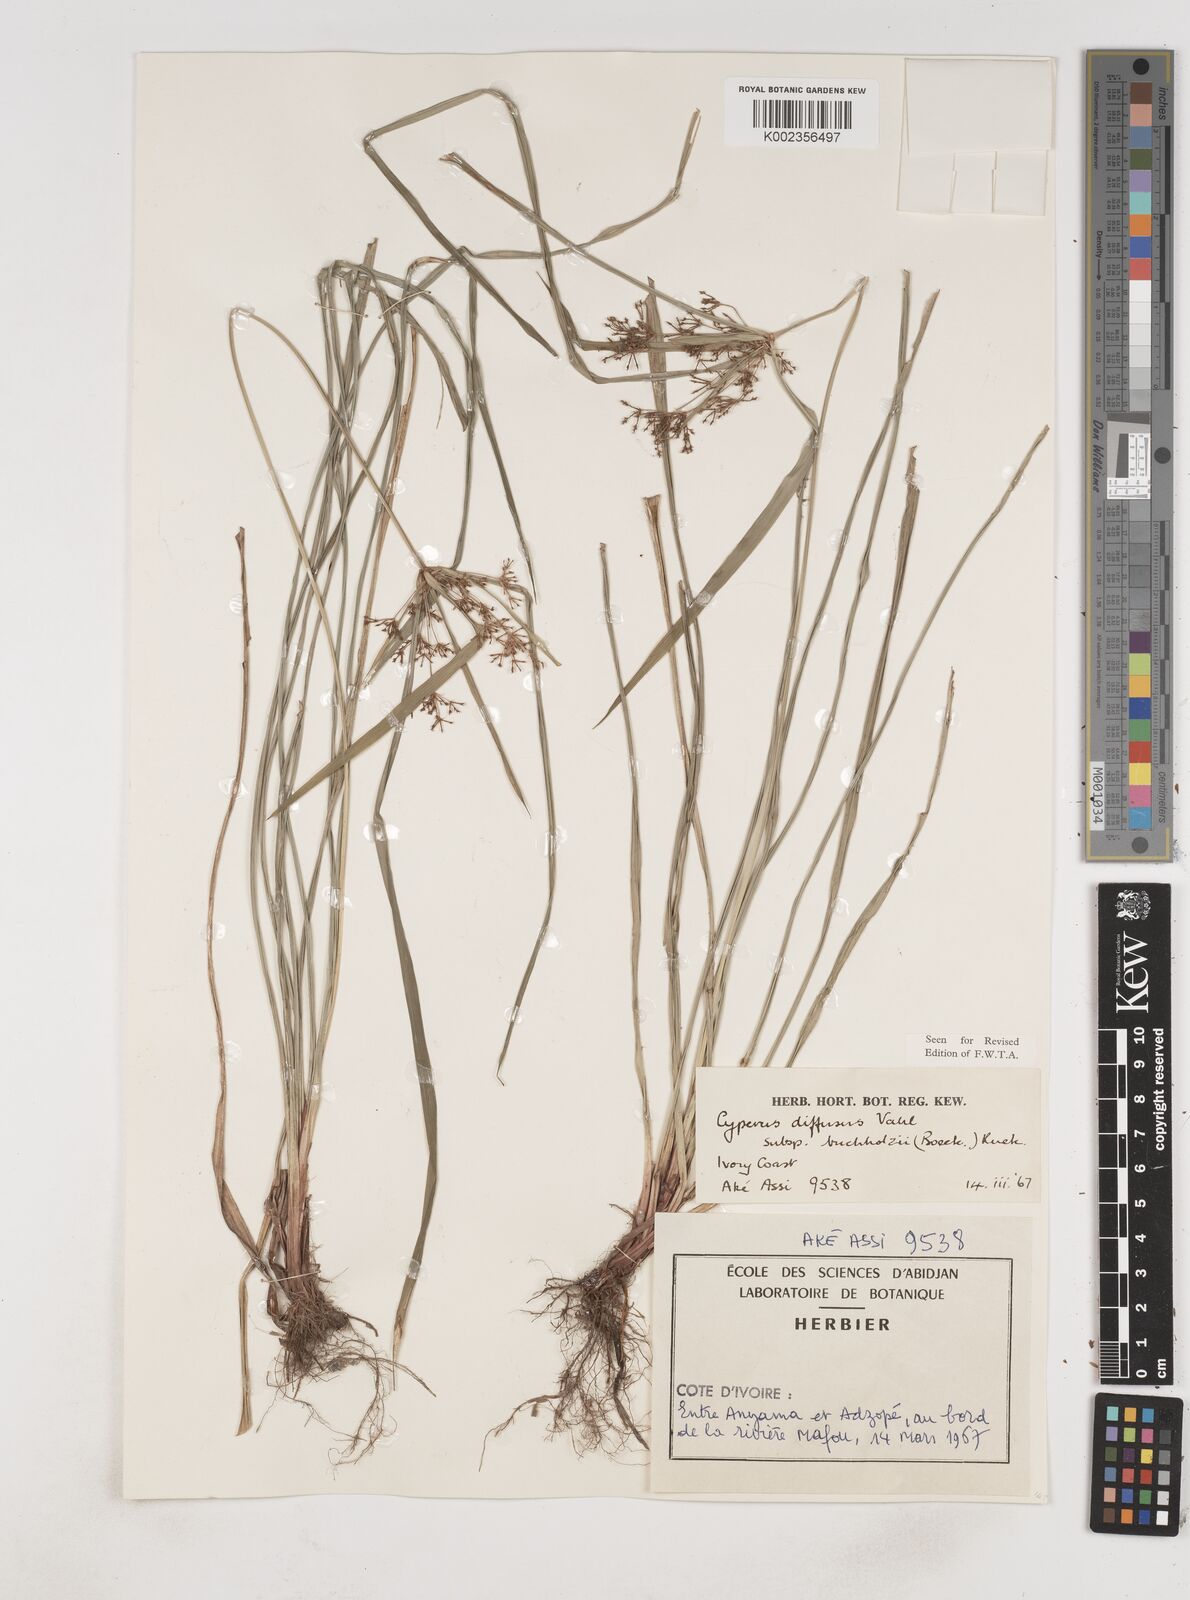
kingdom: Plantae
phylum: Tracheophyta
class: Liliopsida
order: Poales
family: Cyperaceae
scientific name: Cyperaceae
